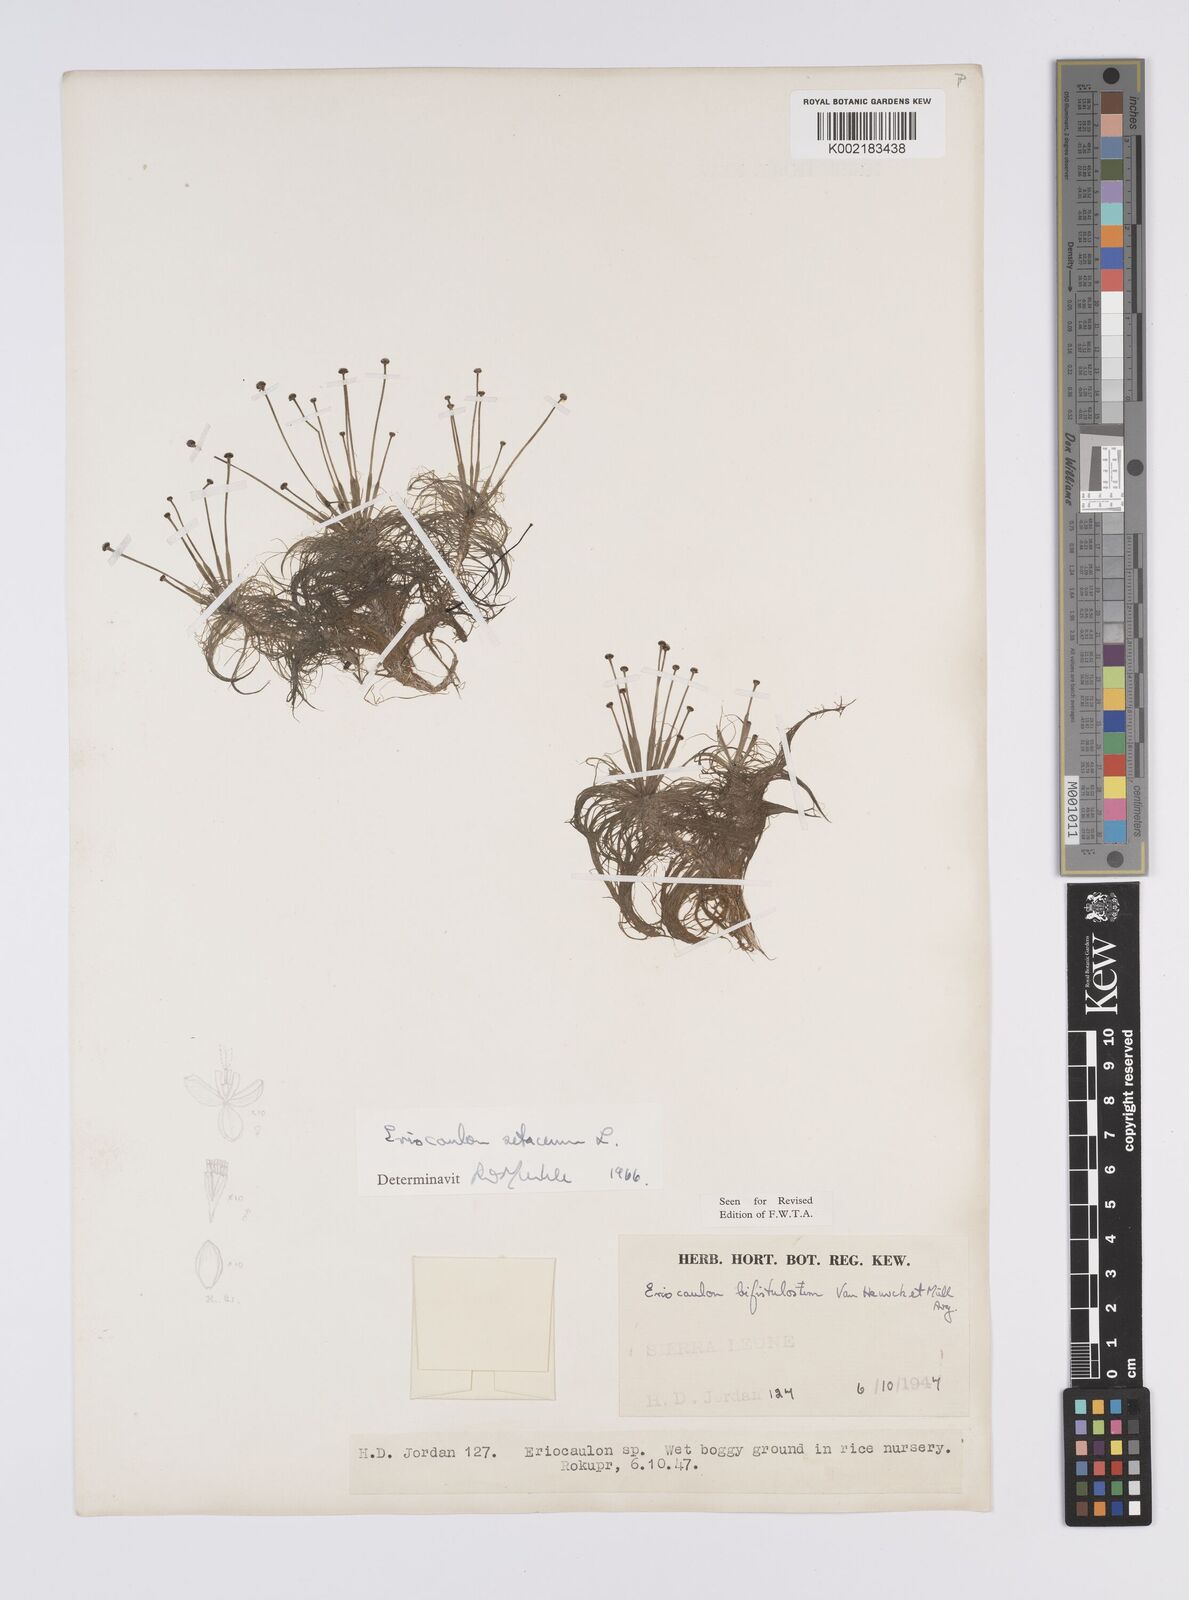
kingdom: Plantae
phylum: Tracheophyta
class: Liliopsida
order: Poales
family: Eriocaulaceae
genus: Eriocaulon
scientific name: Eriocaulon setaceum
